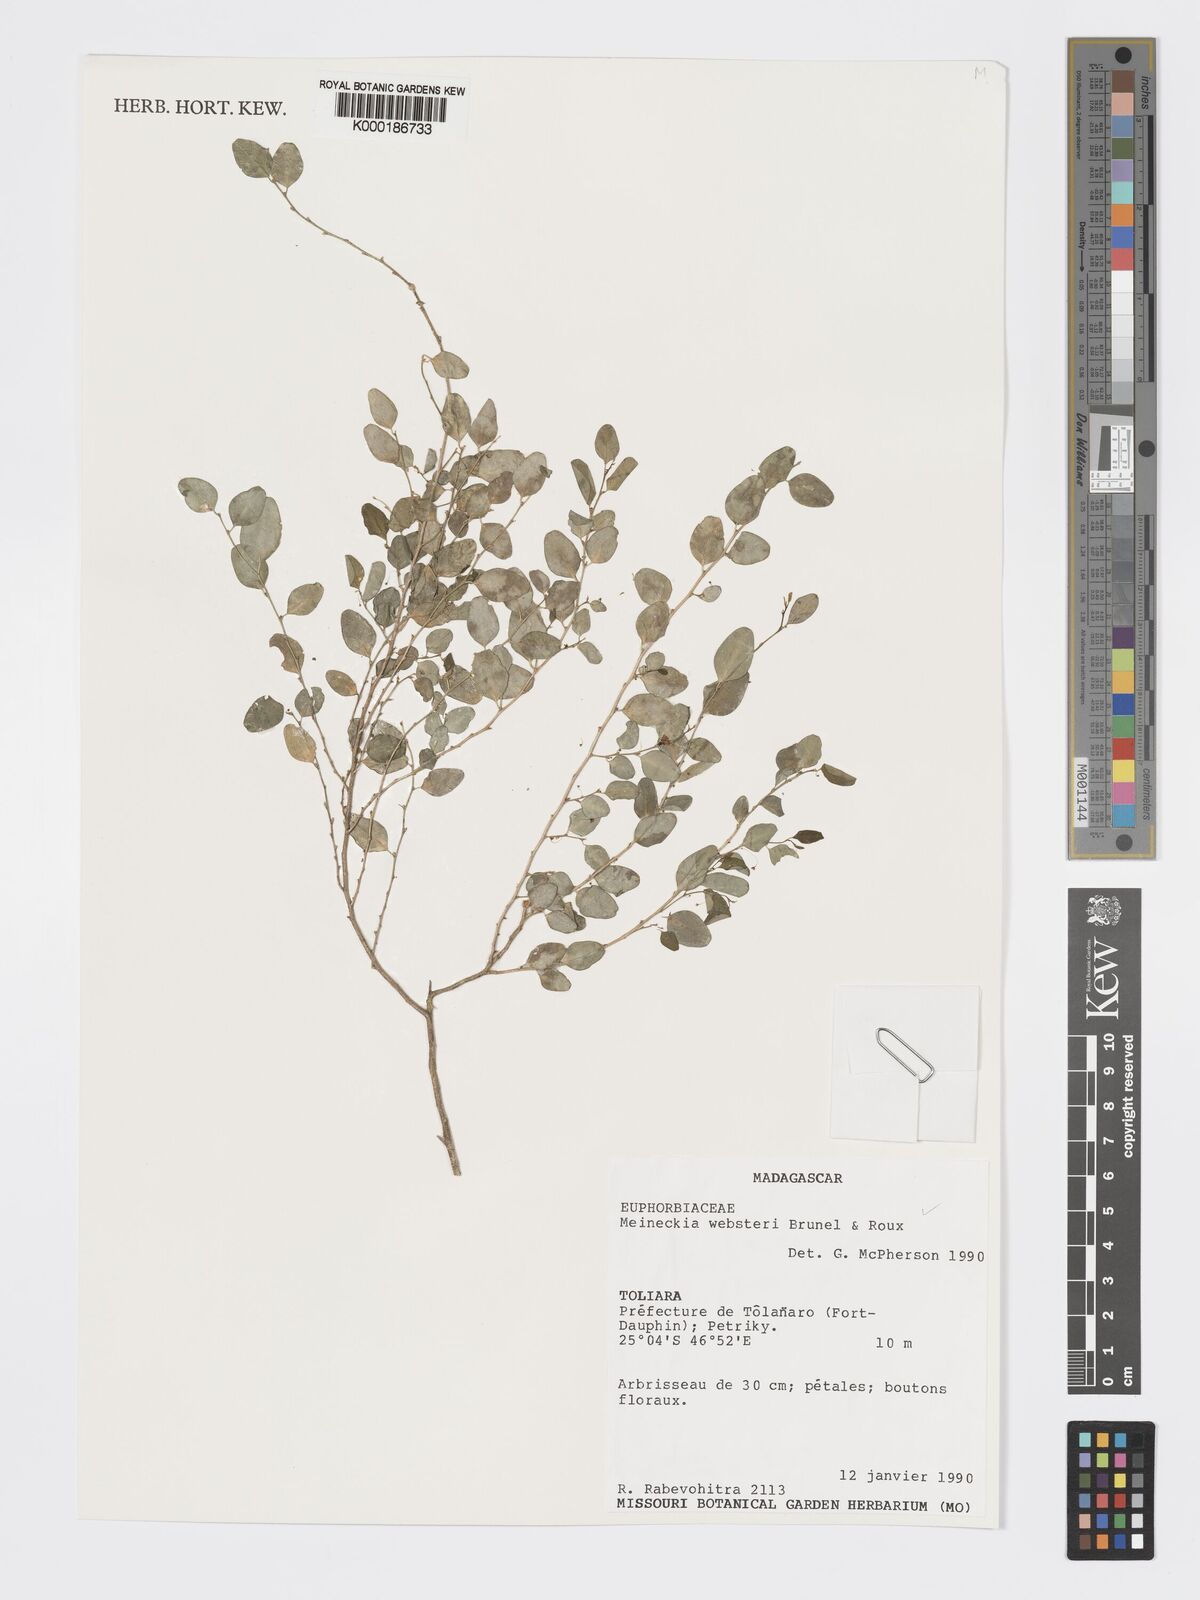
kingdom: Plantae
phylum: Tracheophyta
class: Magnoliopsida
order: Malpighiales
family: Phyllanthaceae
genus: Meineckia
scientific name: Meineckia websteri
